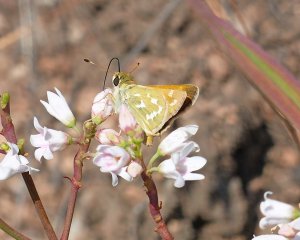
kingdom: Animalia
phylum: Arthropoda
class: Insecta
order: Lepidoptera
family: Hesperiidae
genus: Hesperia
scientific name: Hesperia comma
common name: Western Branded Skipper
